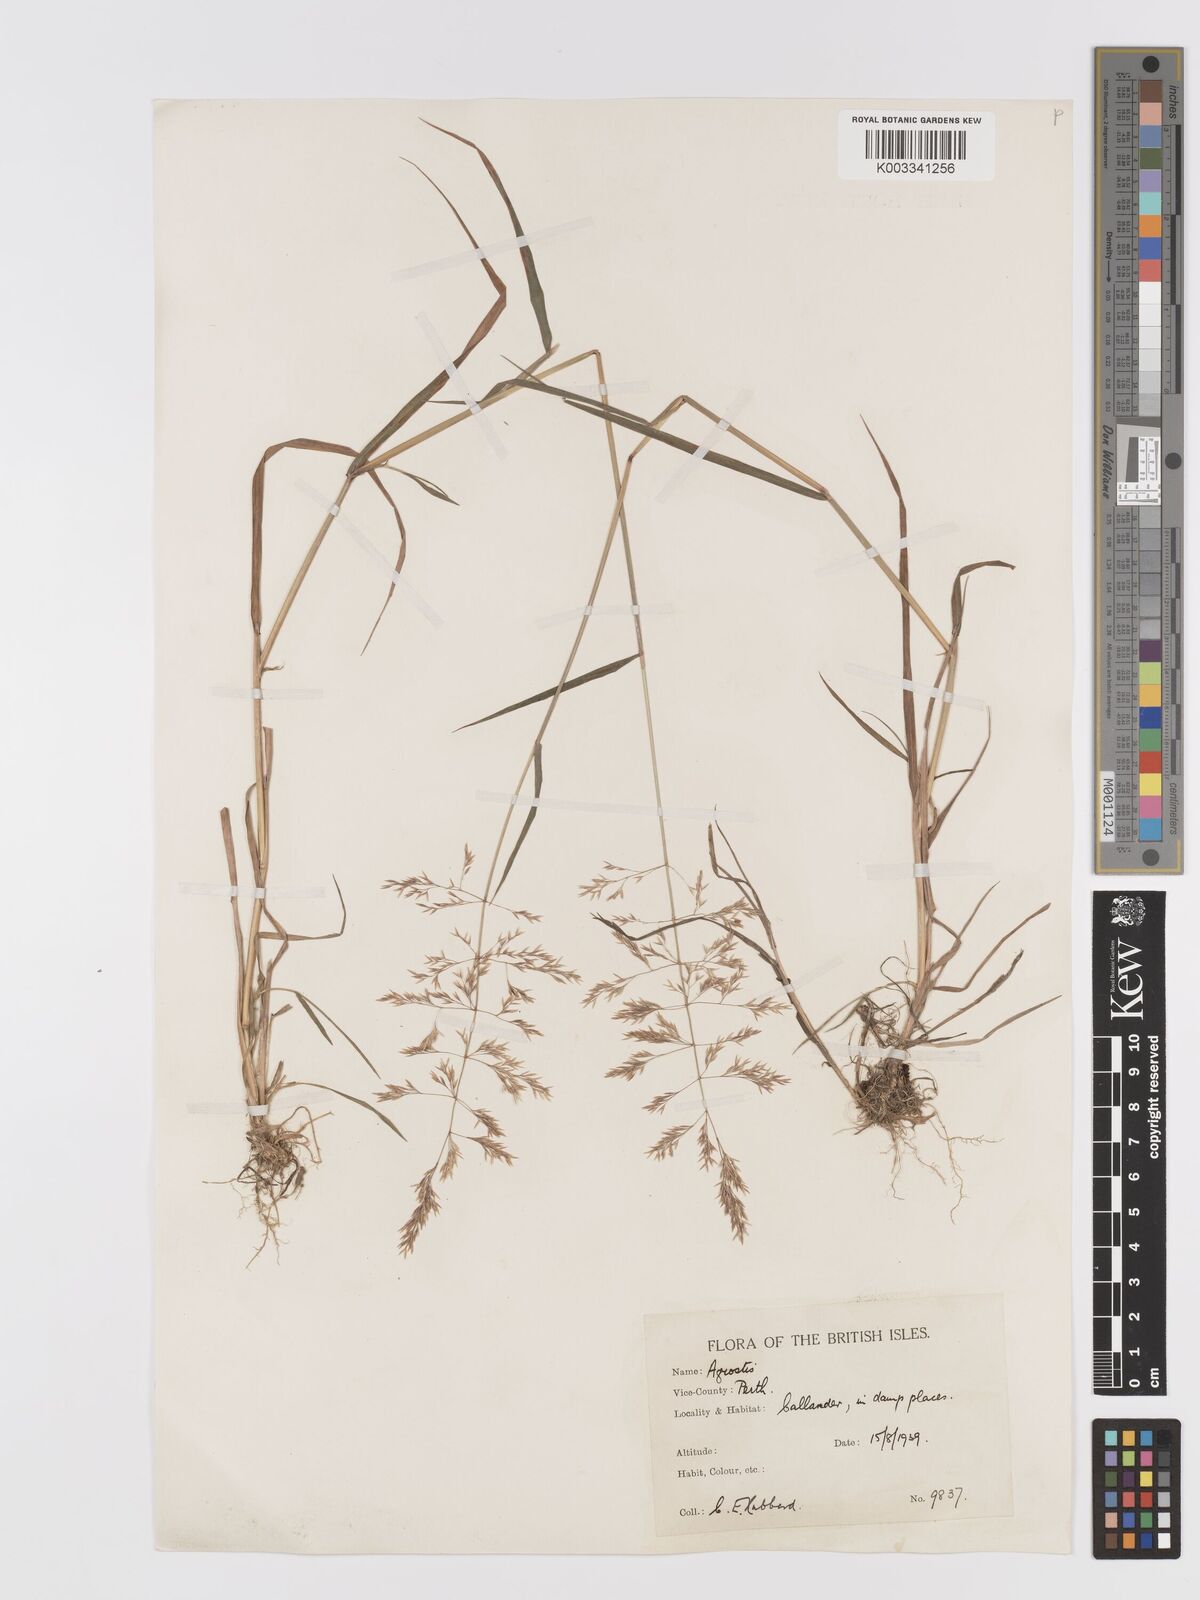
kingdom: Plantae
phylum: Tracheophyta
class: Liliopsida
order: Poales
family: Poaceae
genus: Agrostis
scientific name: Agrostis gigantea
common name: Black bent
